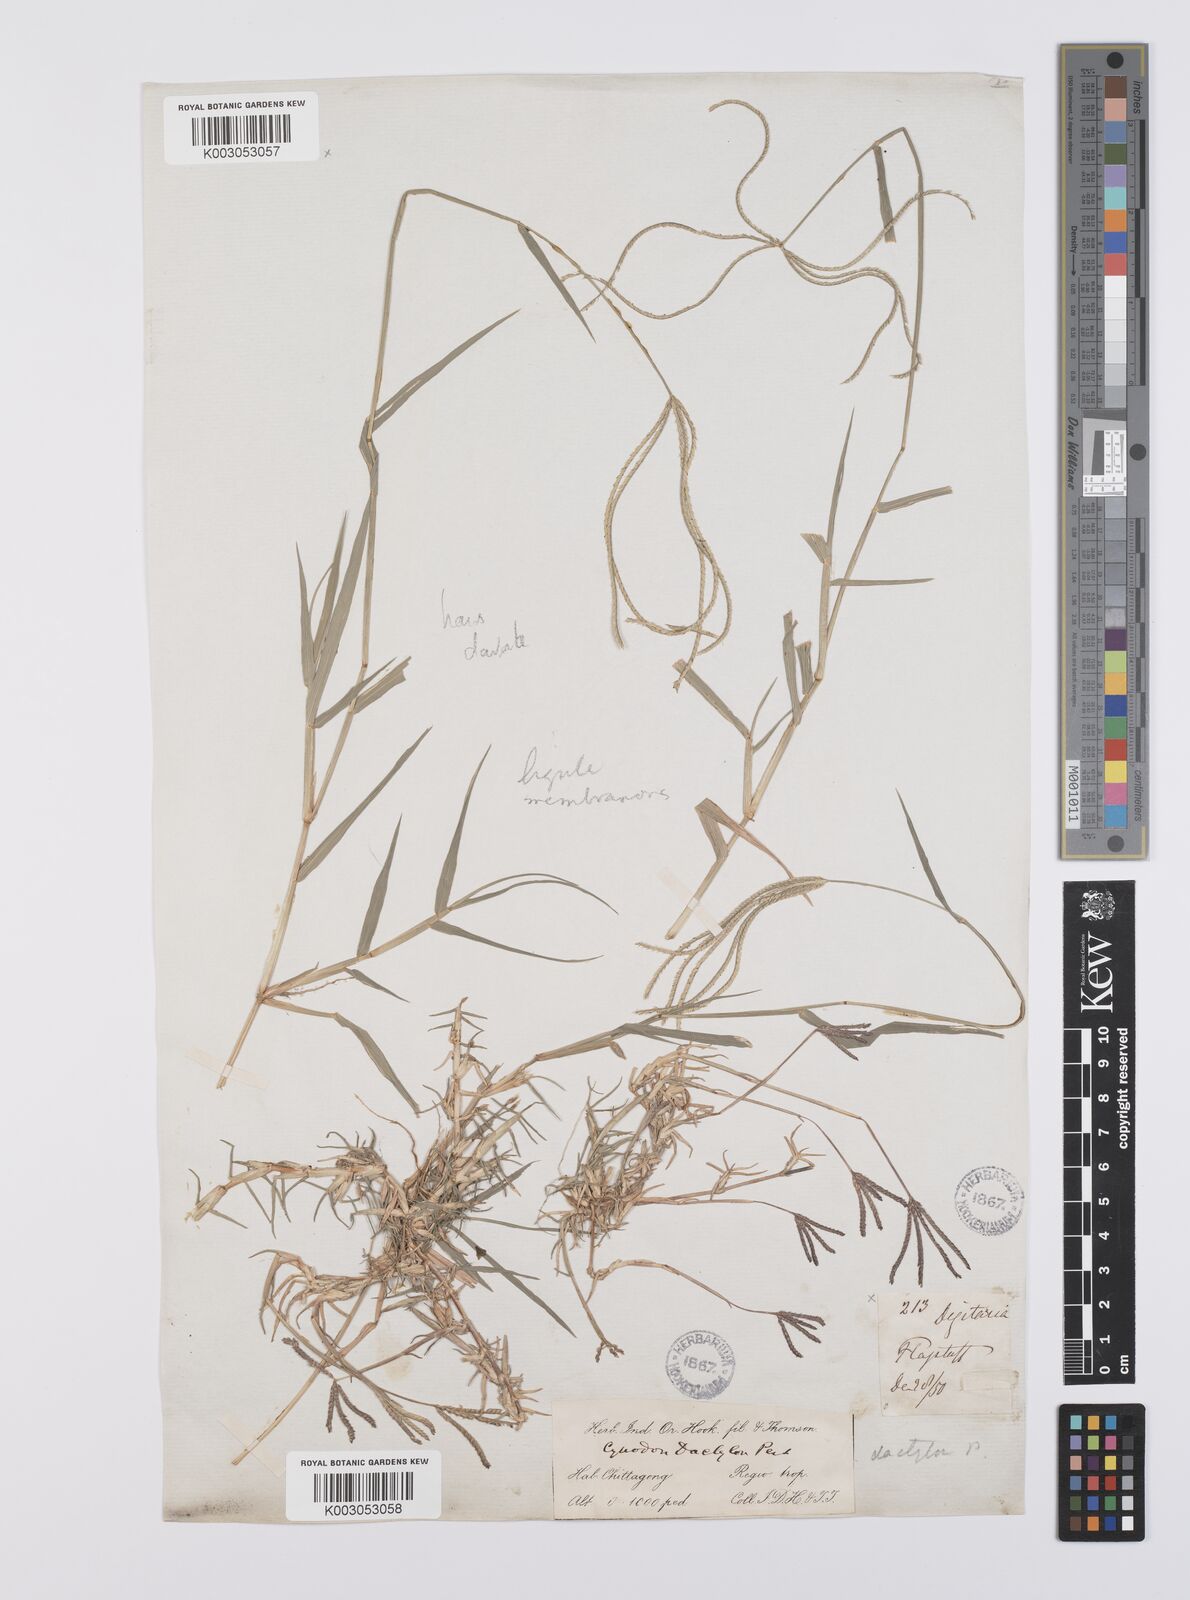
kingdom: Plantae
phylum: Tracheophyta
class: Liliopsida
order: Poales
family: Poaceae
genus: Cynodon
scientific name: Cynodon radiatus
